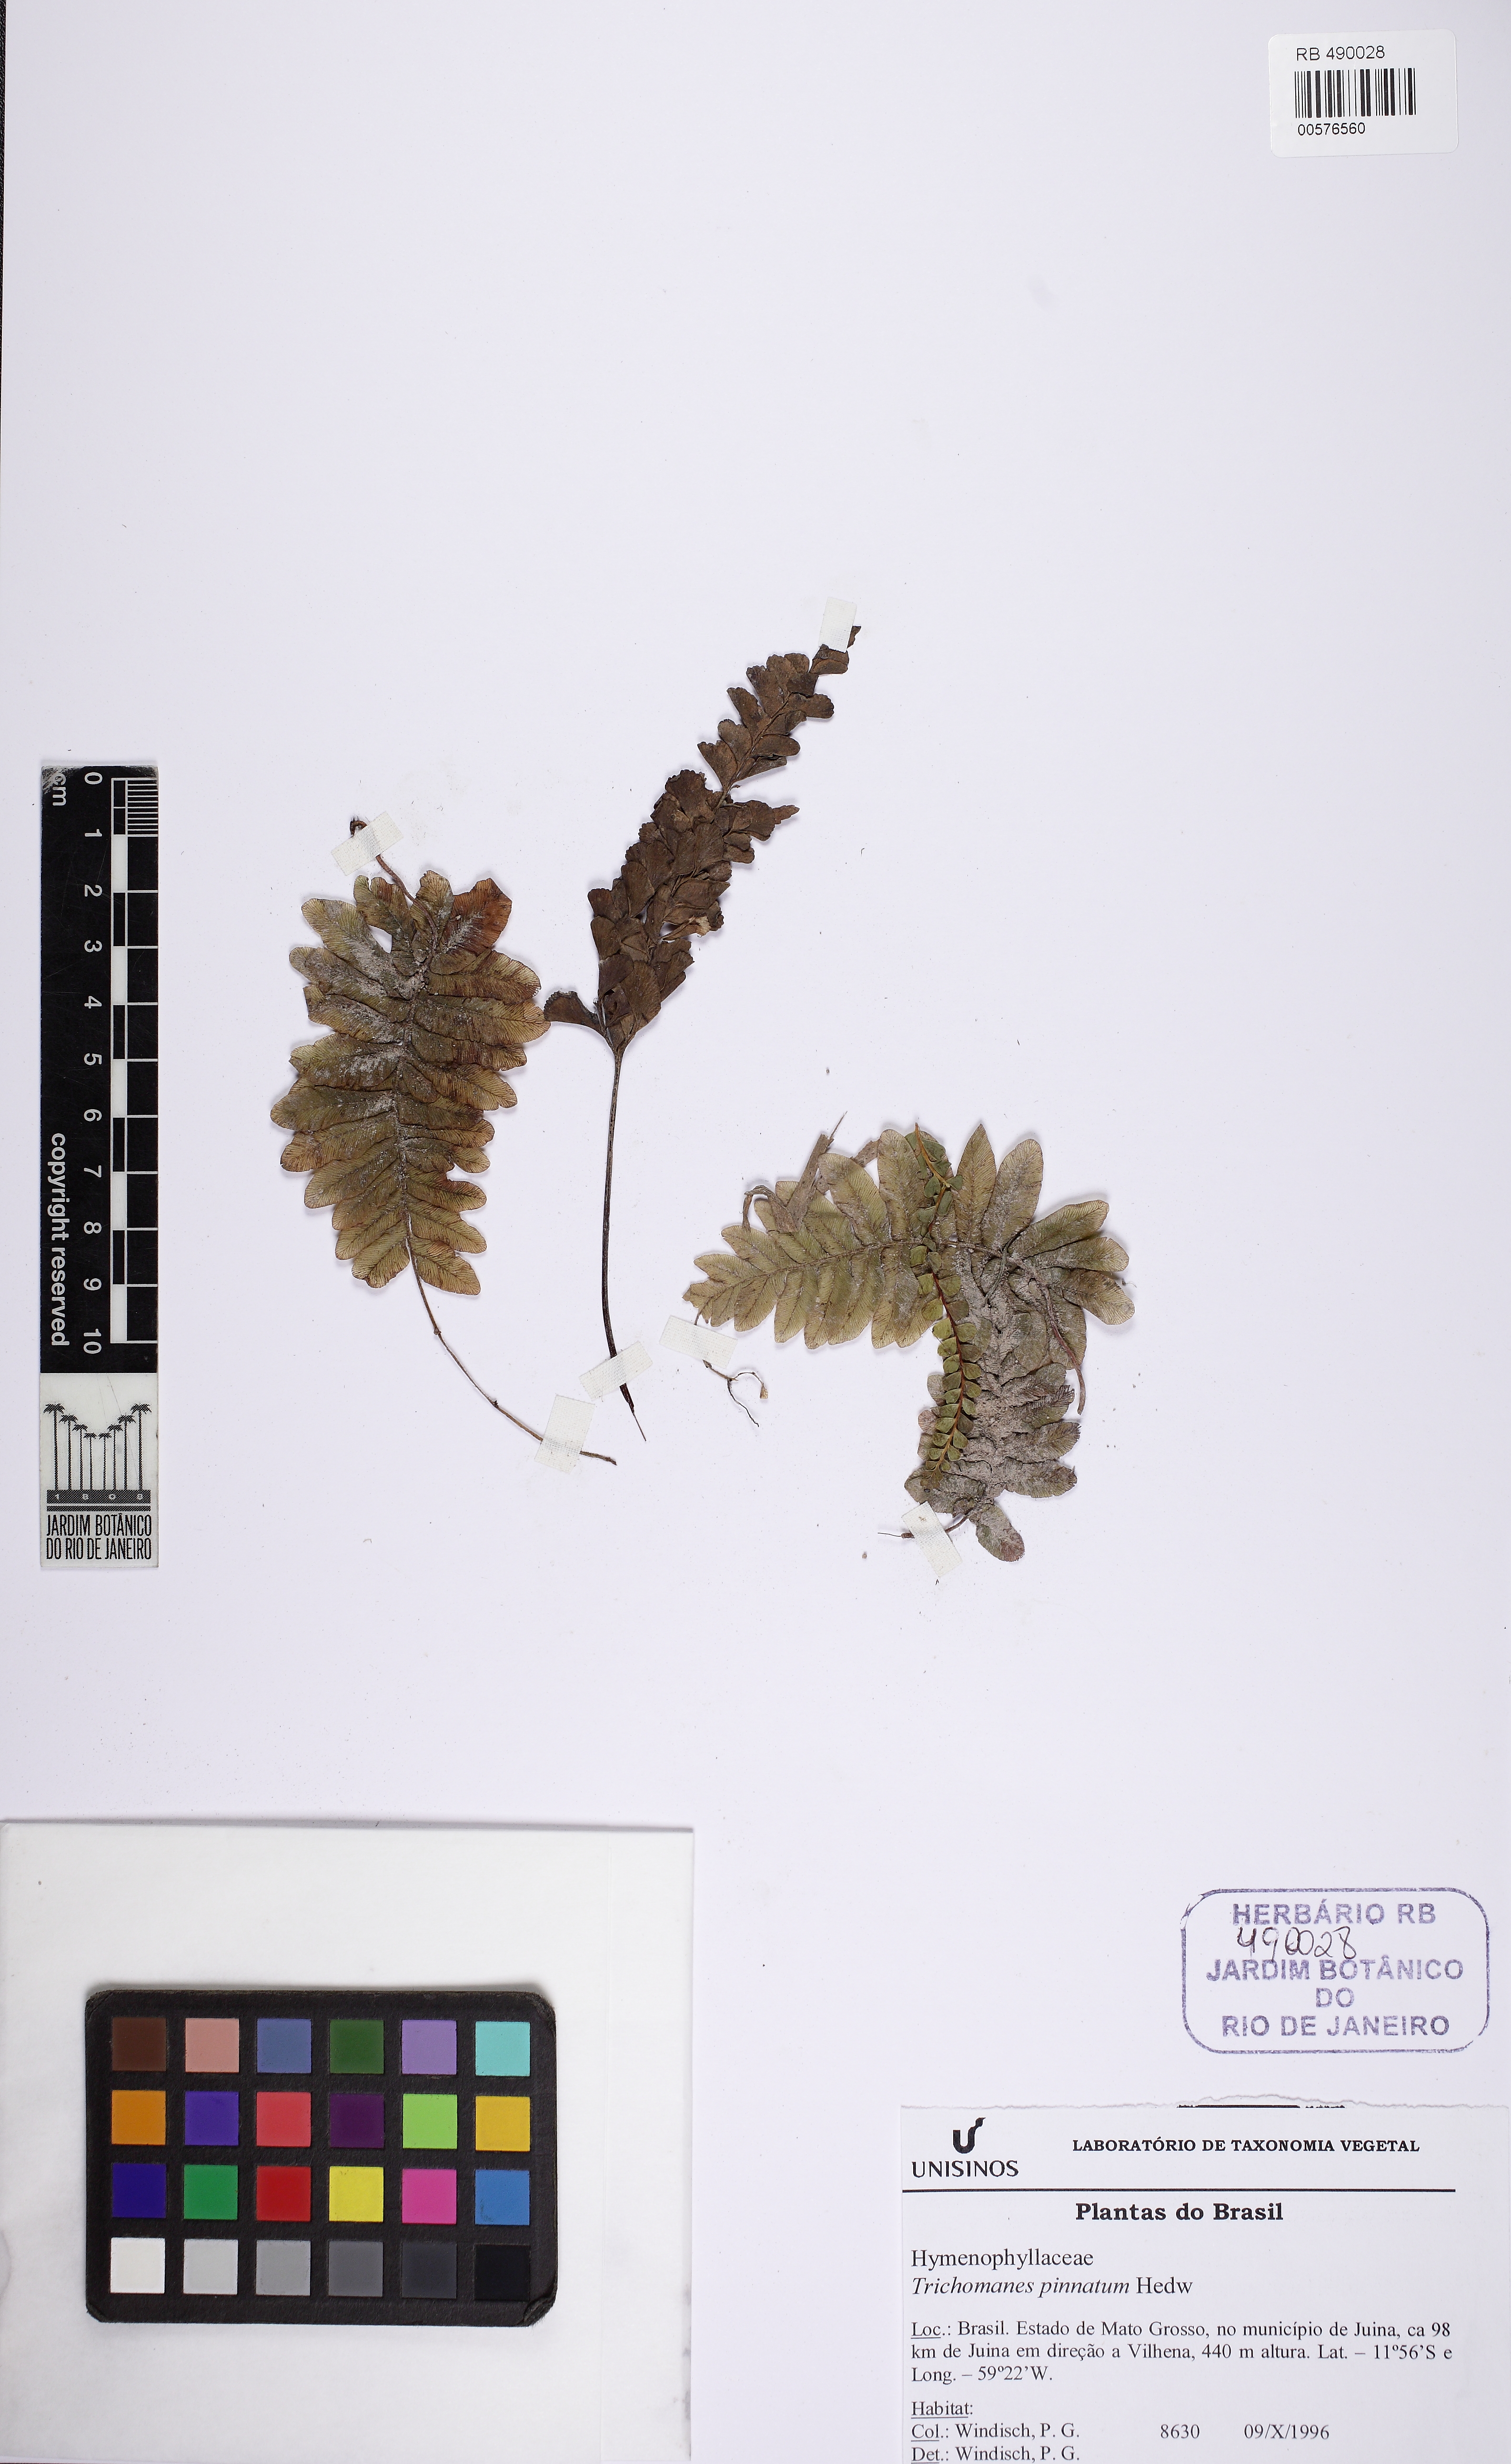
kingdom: Plantae
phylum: Tracheophyta
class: Polypodiopsida
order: Hymenophyllales
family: Hymenophyllaceae
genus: Trichomanes
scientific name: Trichomanes pinnatum
